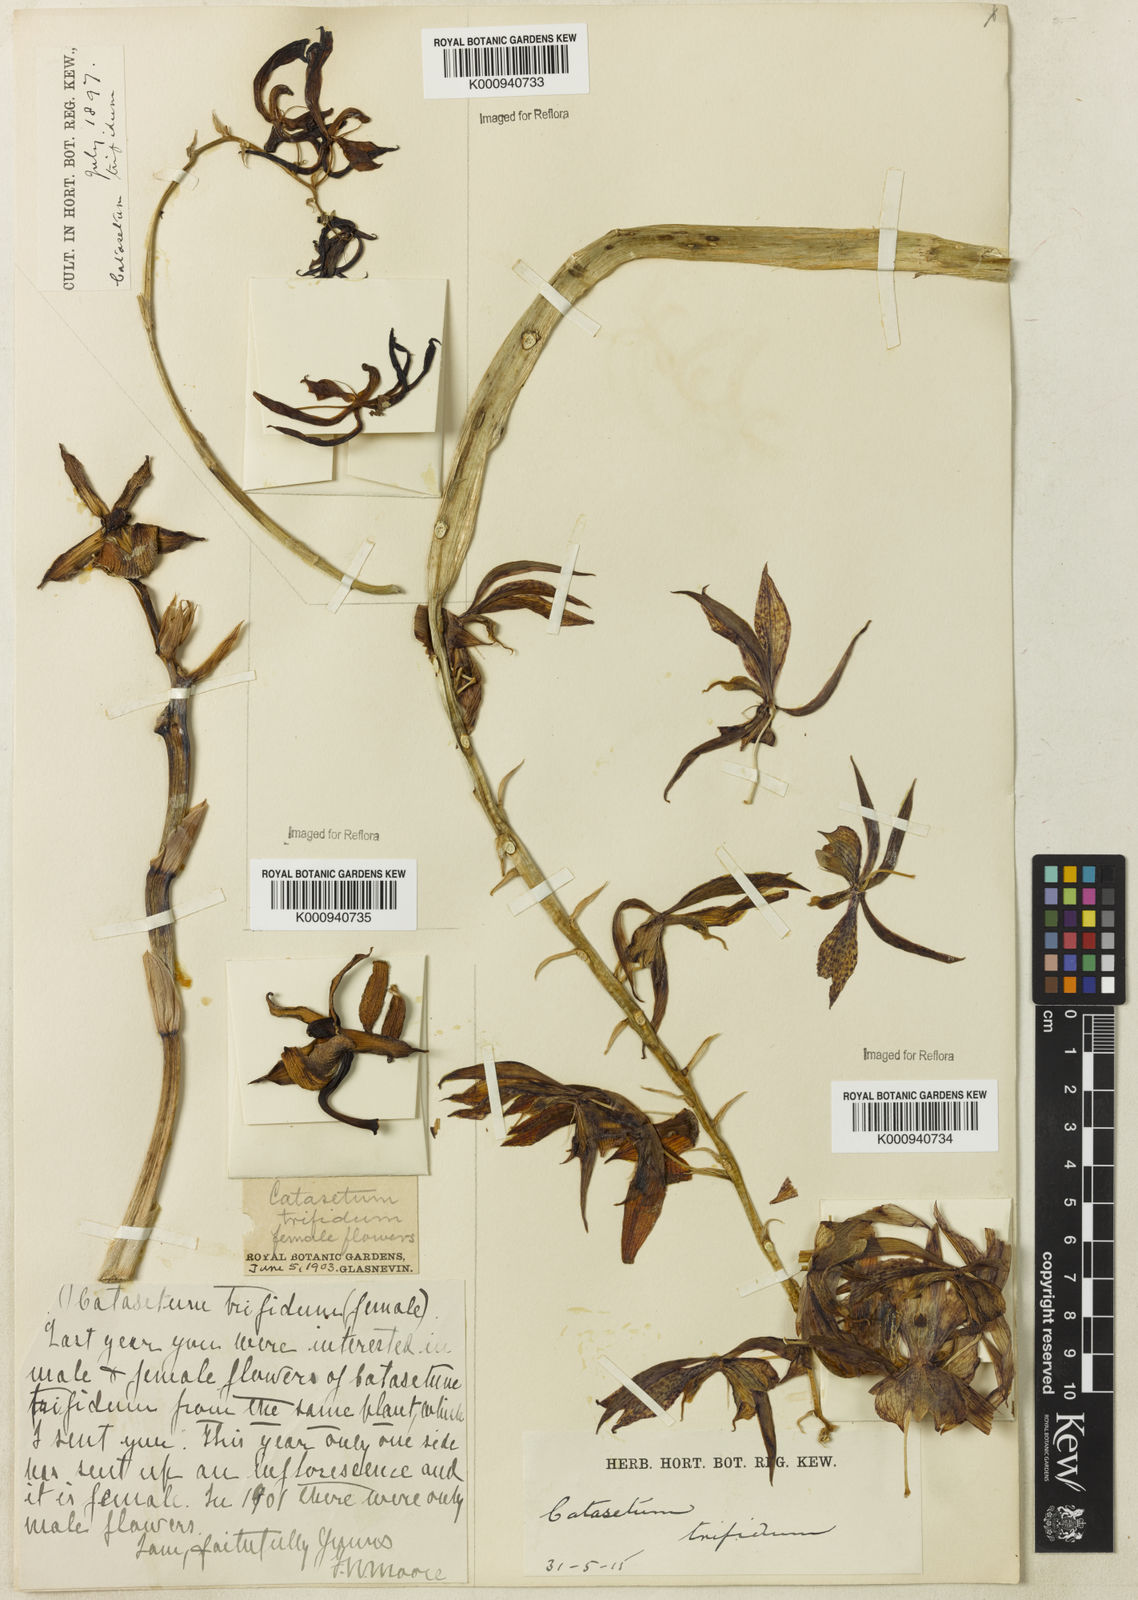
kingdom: Plantae
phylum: Tracheophyta
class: Liliopsida
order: Asparagales
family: Orchidaceae
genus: Catasetum
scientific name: Catasetum cernuum
